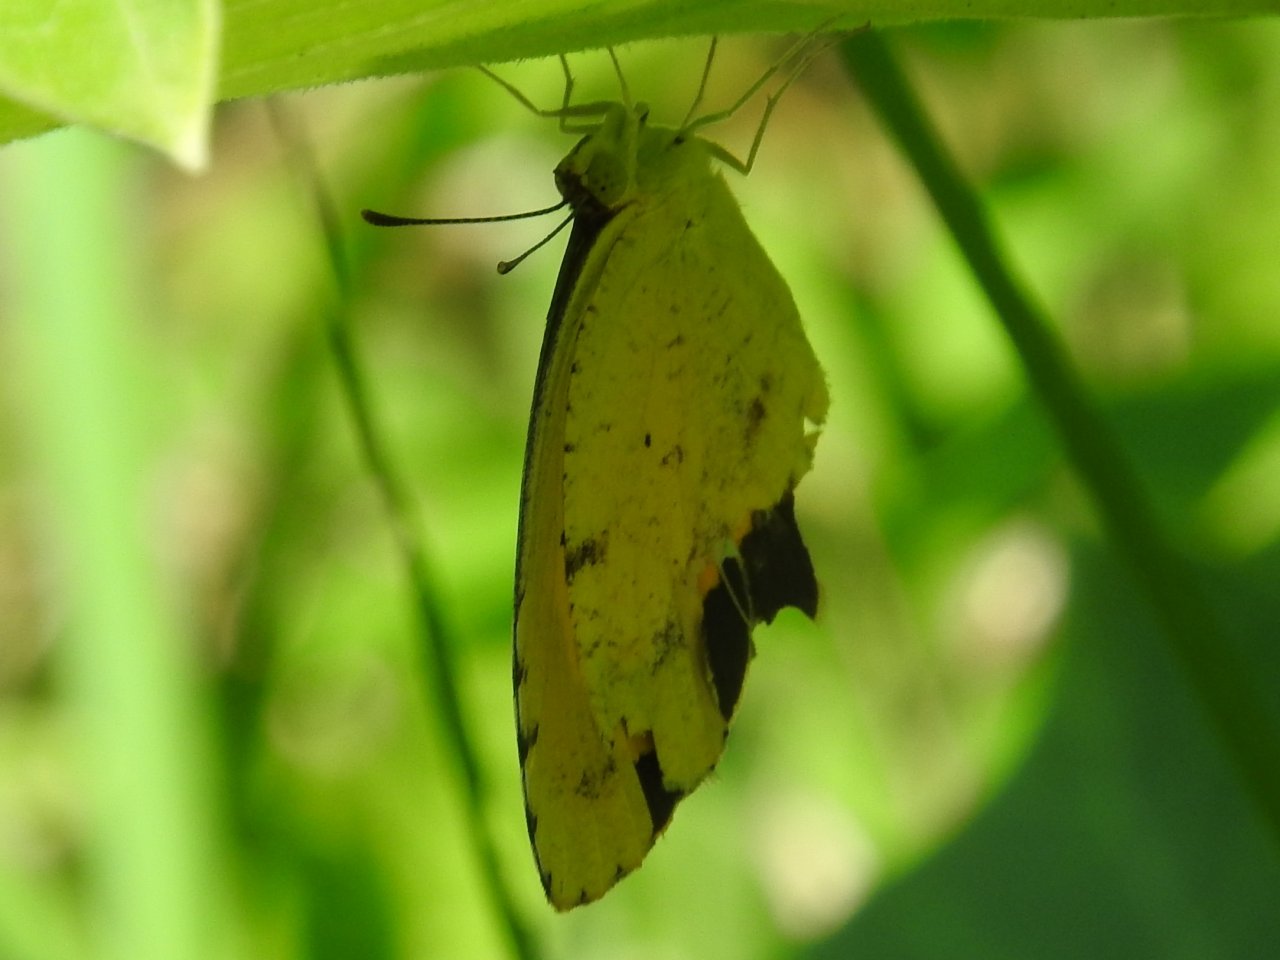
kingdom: Animalia
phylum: Arthropoda
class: Insecta
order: Lepidoptera
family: Pieridae
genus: Abaeis
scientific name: Abaeis nicippe
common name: Sleepy Orange
